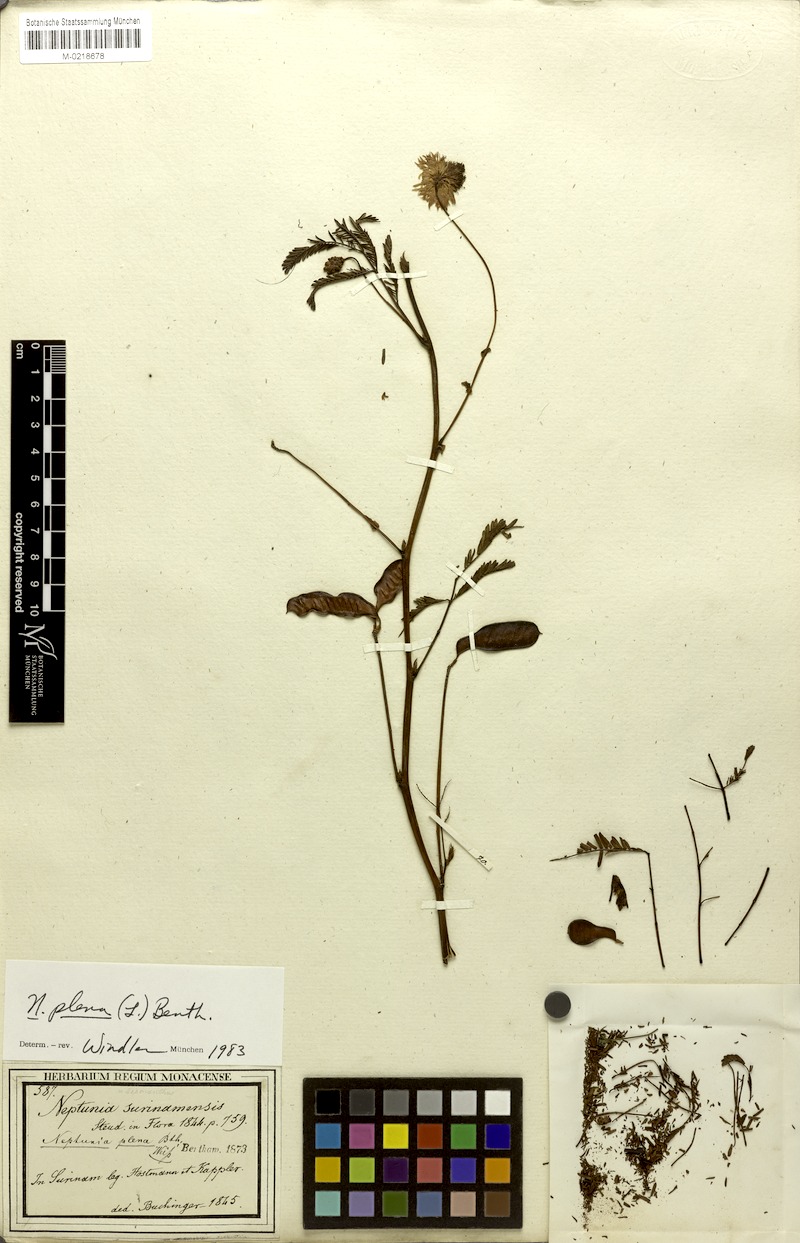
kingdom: Plantae
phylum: Tracheophyta
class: Magnoliopsida
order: Fabales
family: Fabaceae
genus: Neptunia
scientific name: Neptunia plena
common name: Dead and awake
